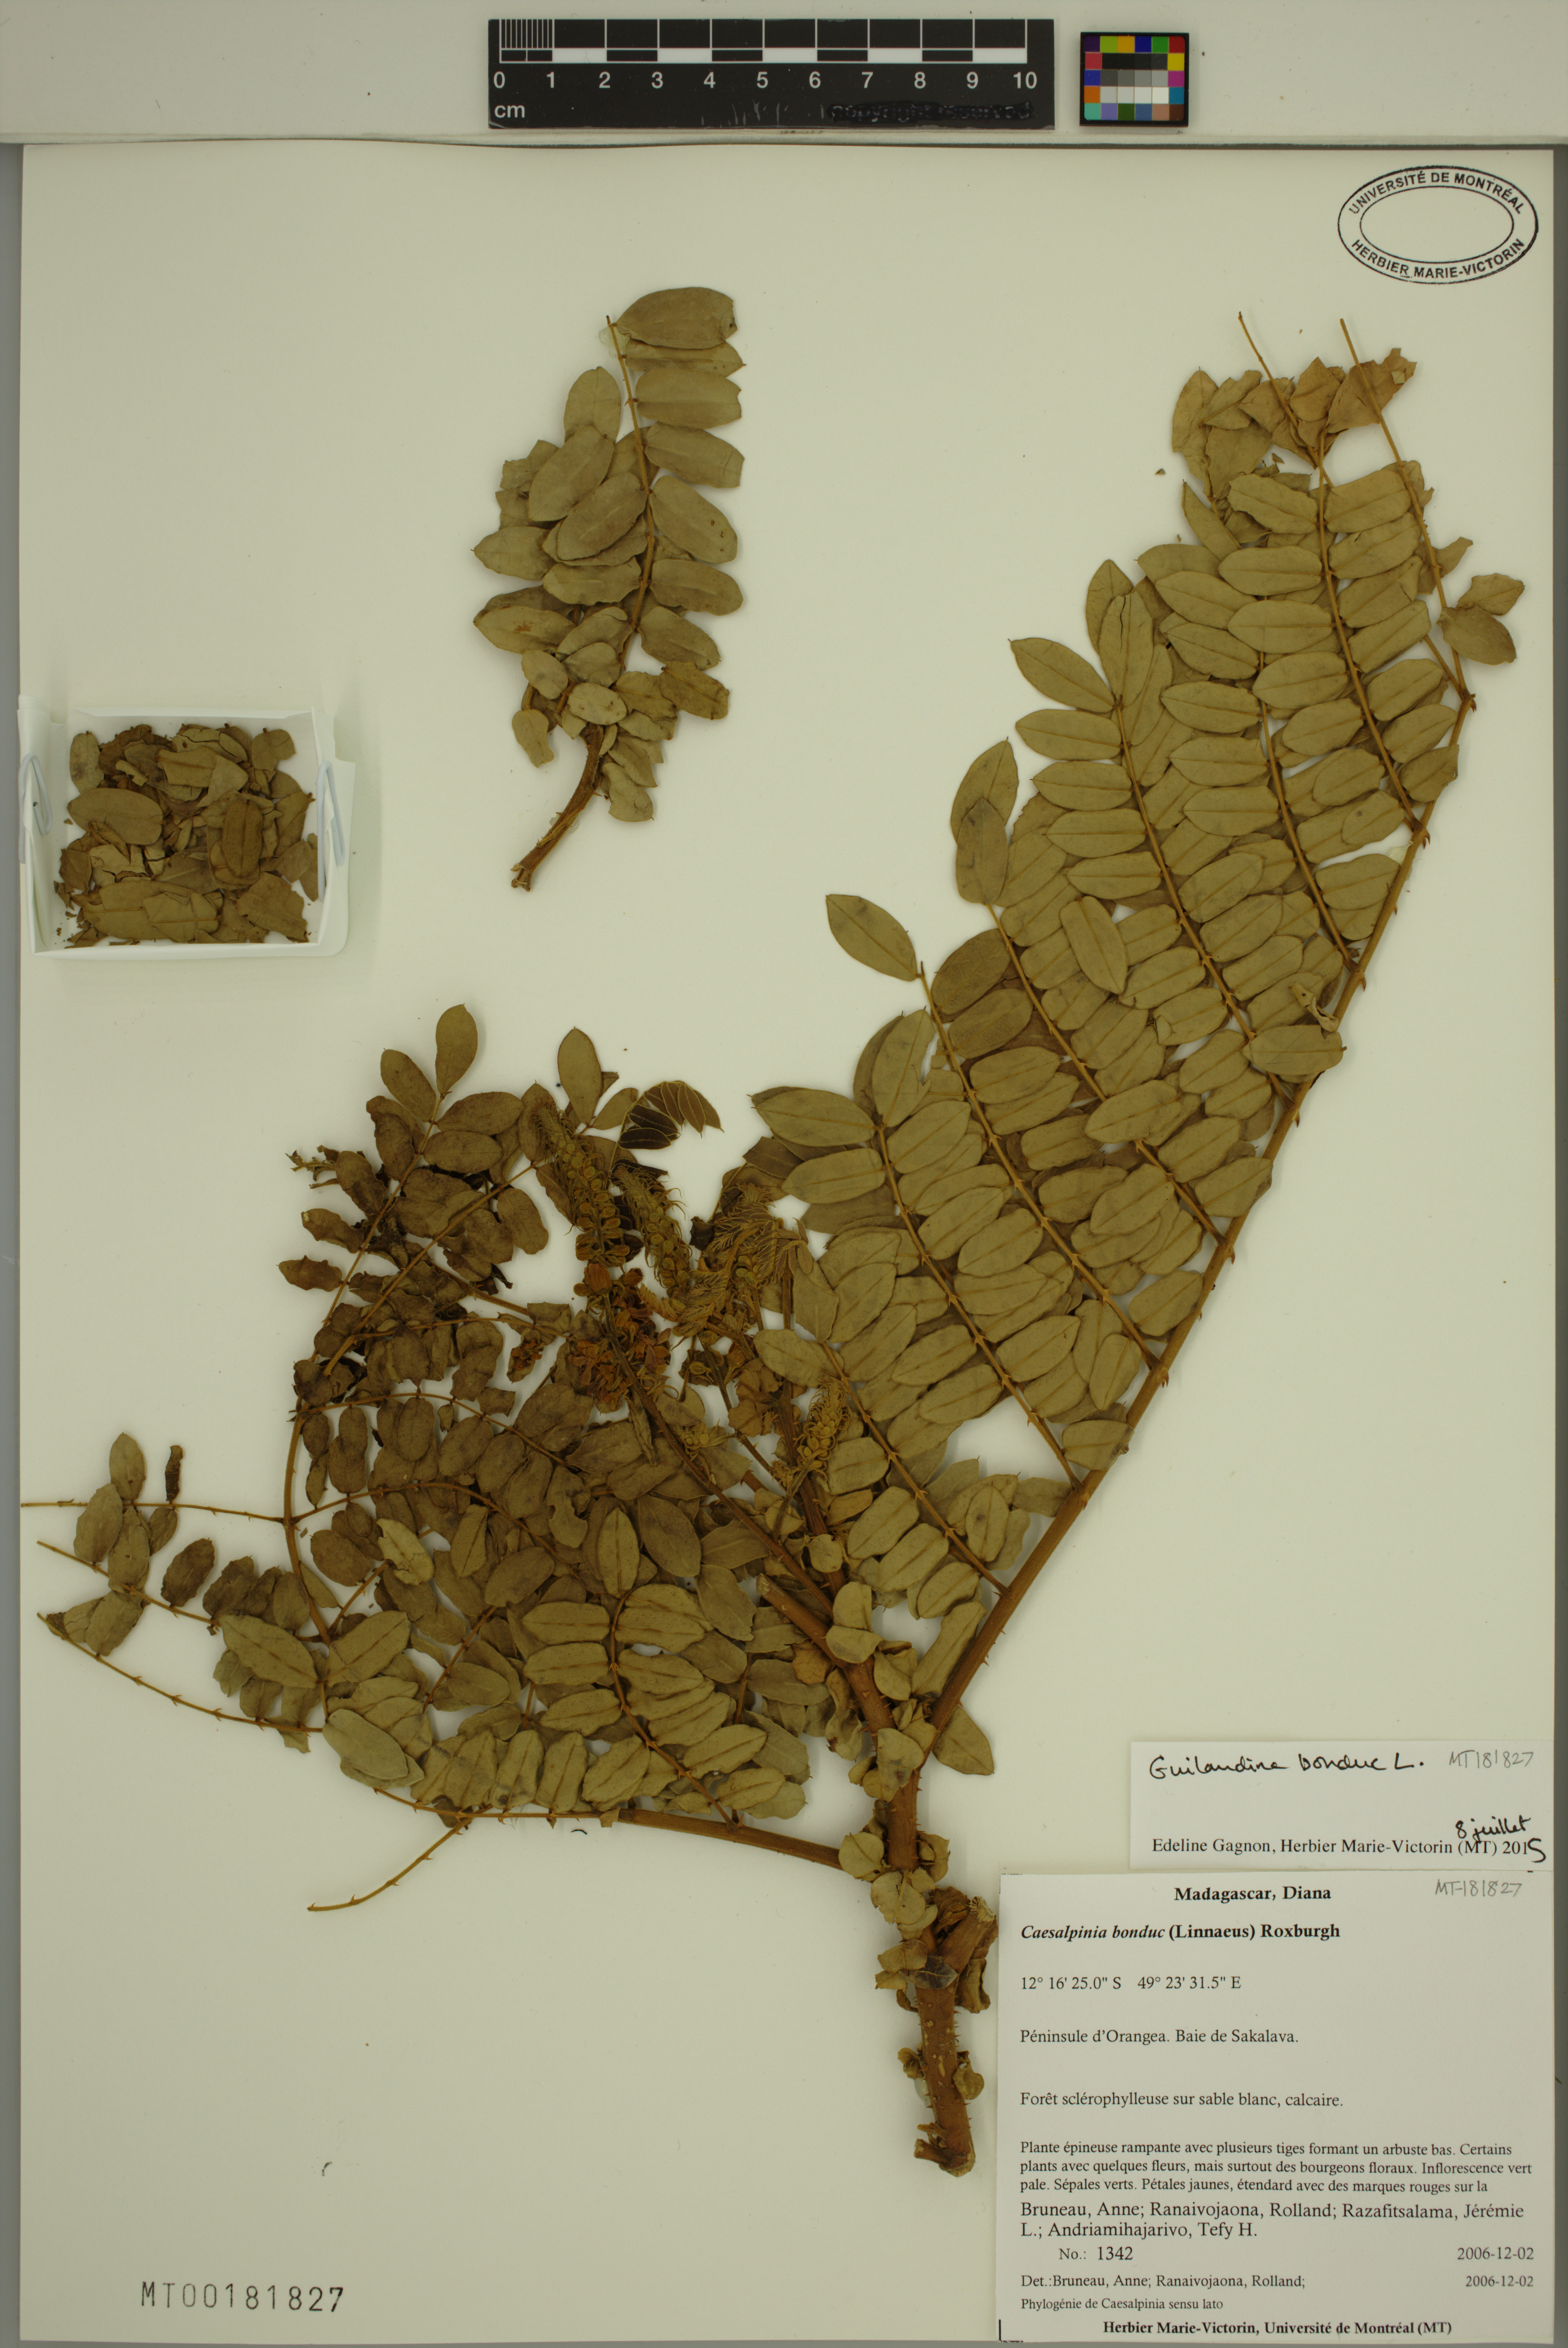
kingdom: Plantae
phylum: Tracheophyta
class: Magnoliopsida
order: Fabales
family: Fabaceae
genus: Guilandina
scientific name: Guilandina bonduc
